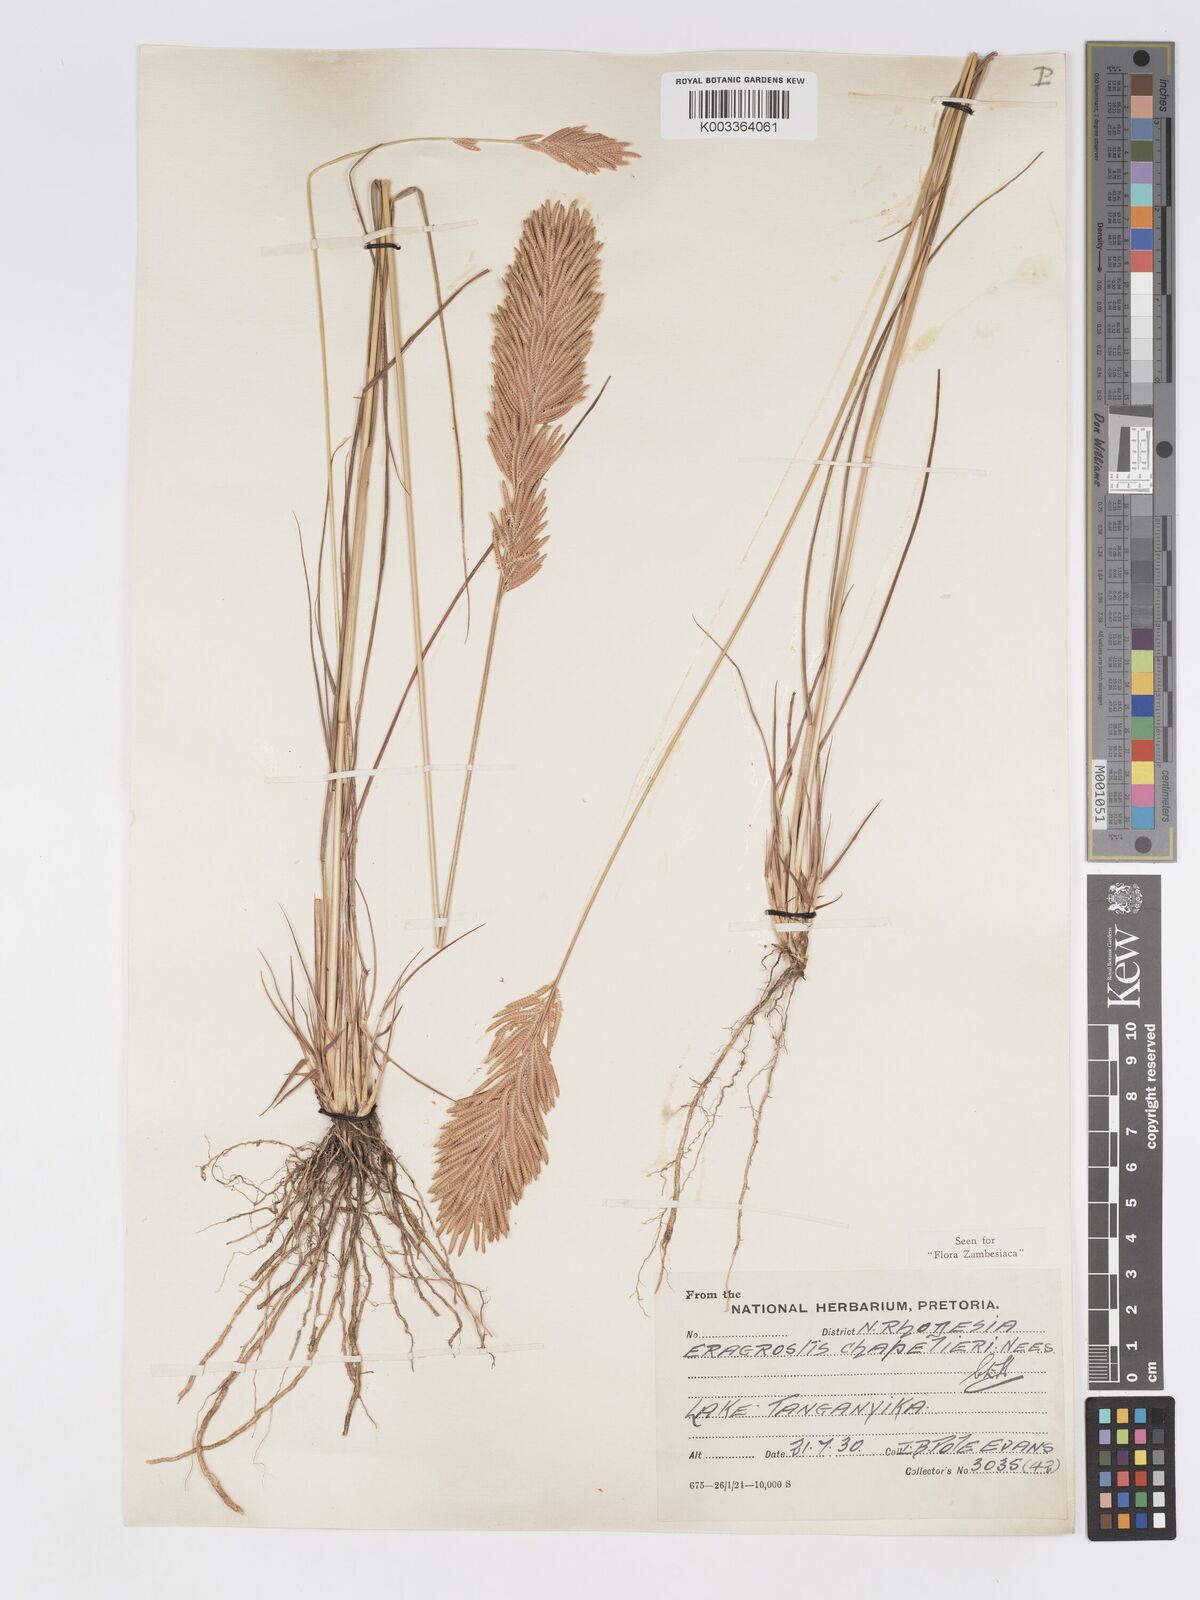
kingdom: Plantae
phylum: Tracheophyta
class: Liliopsida
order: Poales
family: Poaceae
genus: Eragrostis
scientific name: Eragrostis chapelieri
